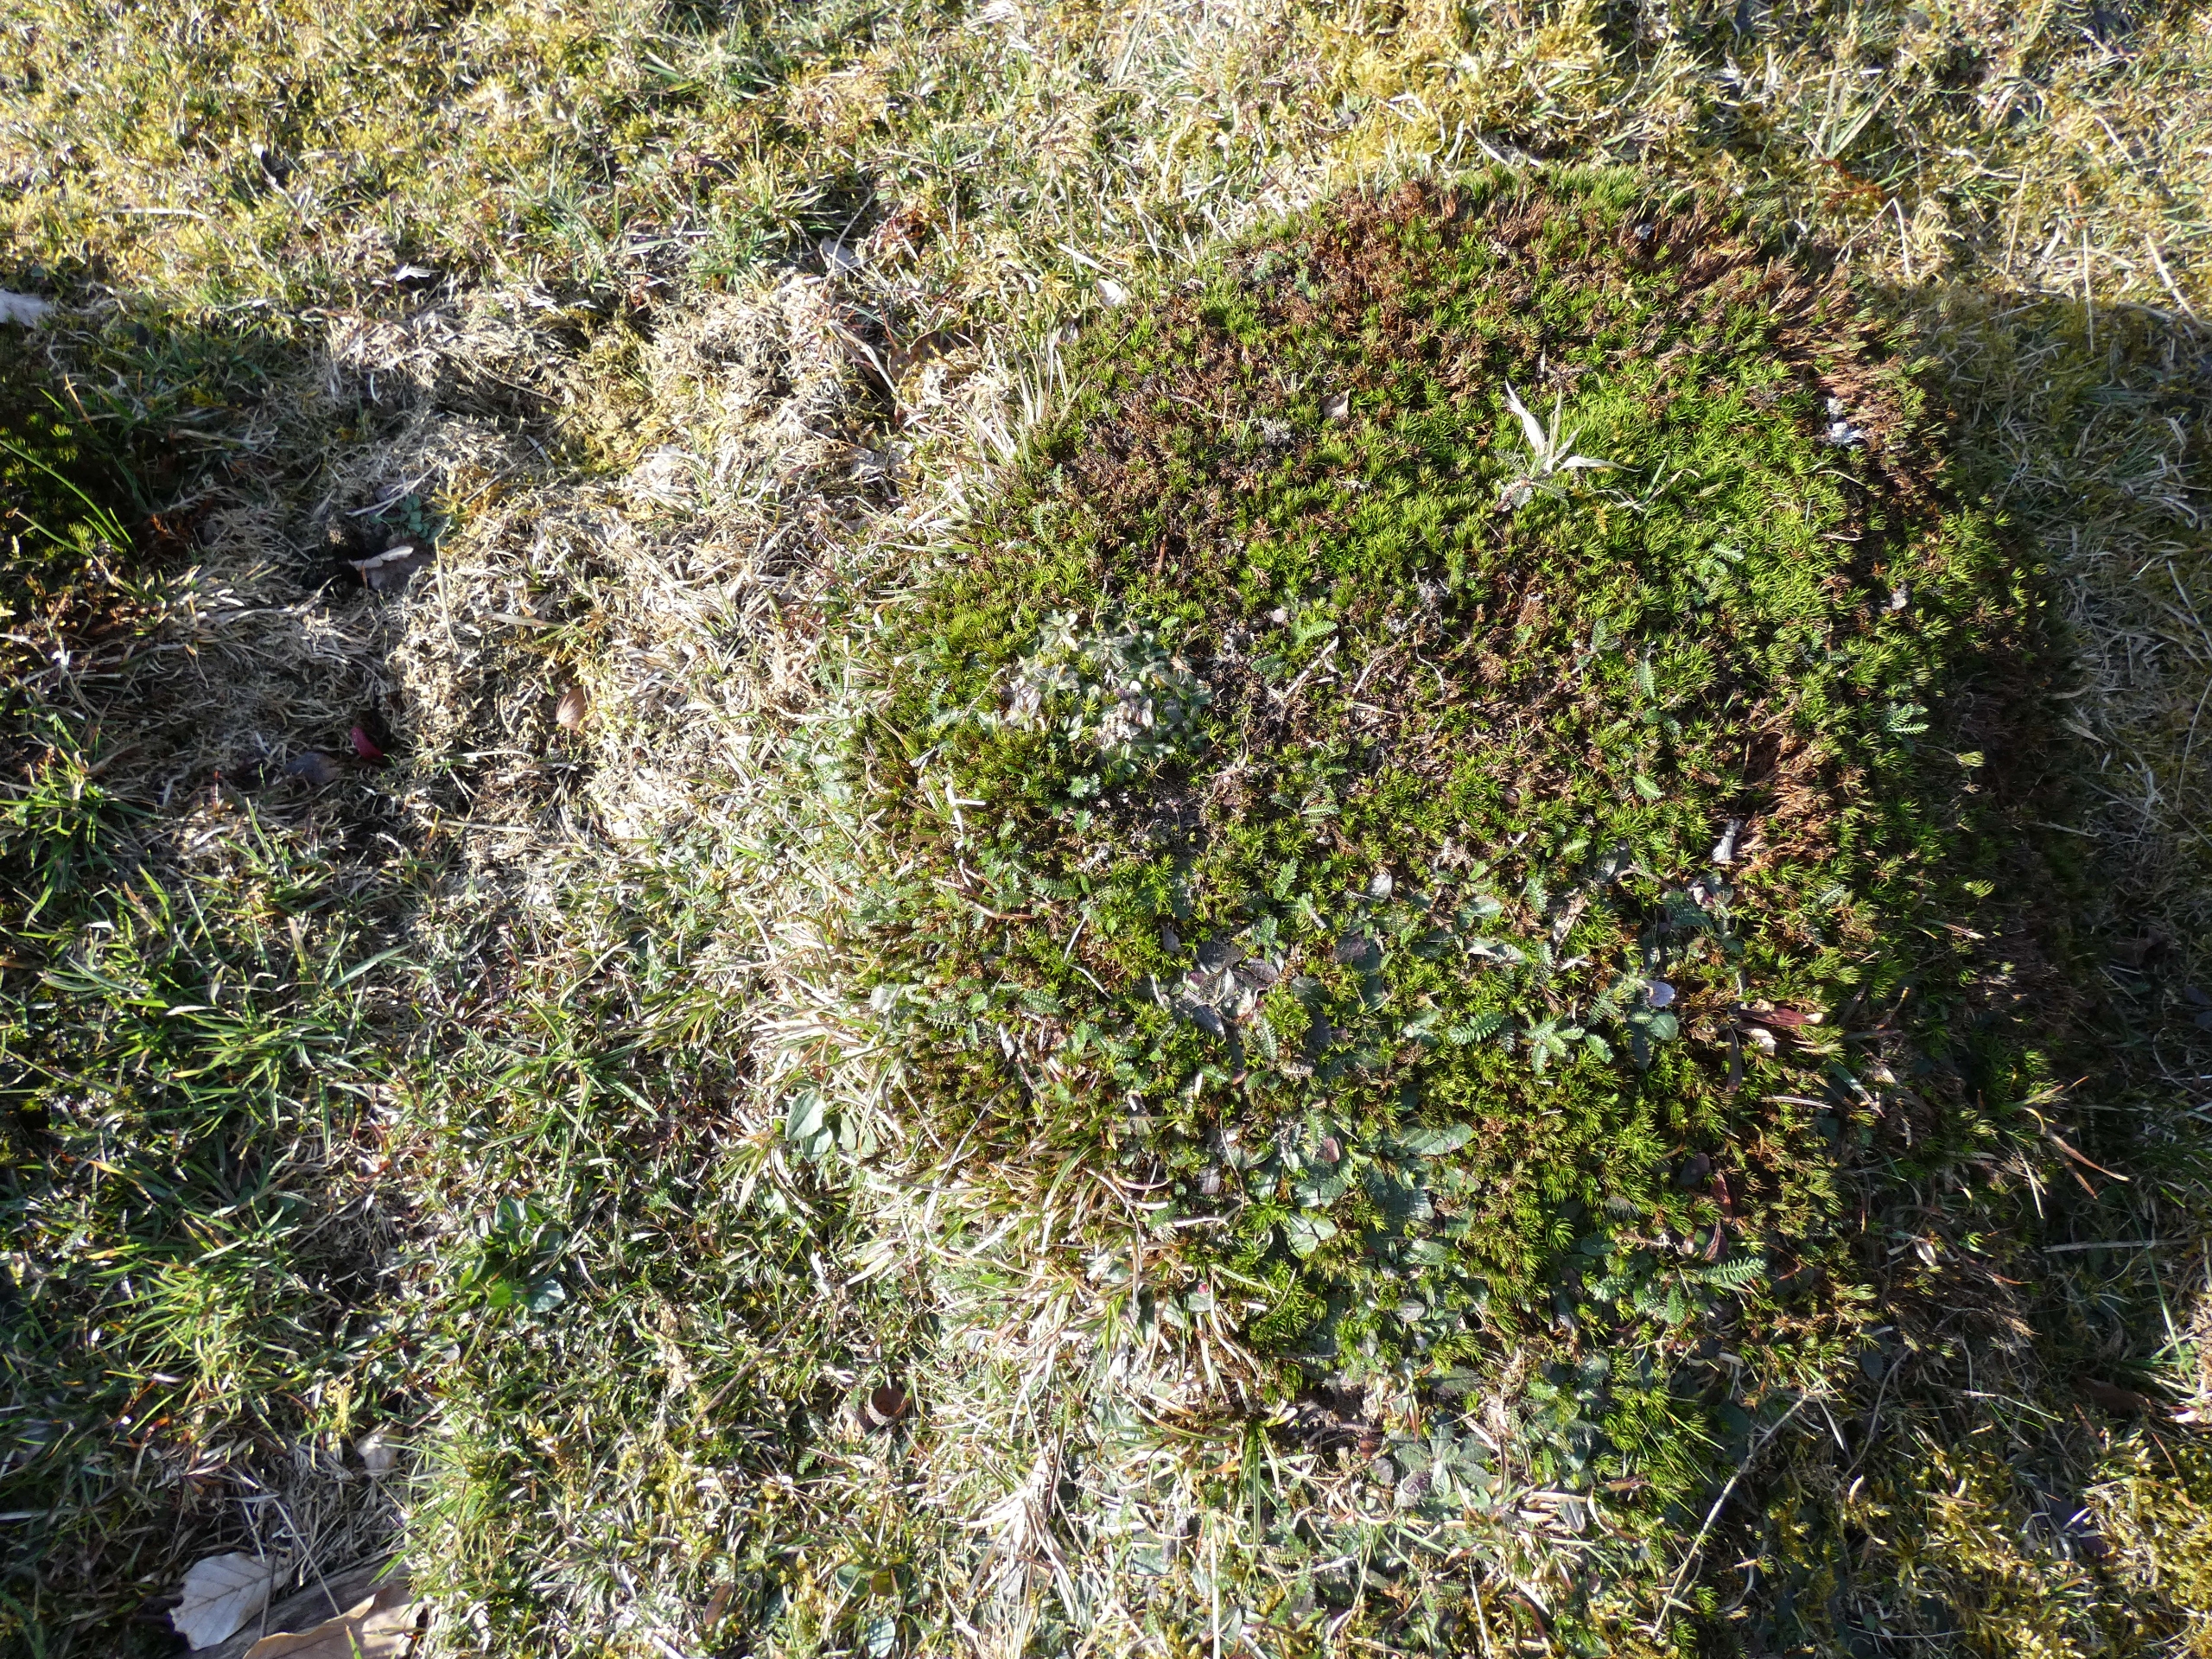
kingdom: Plantae
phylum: Bryophyta
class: Polytrichopsida
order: Polytrichales
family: Polytrichaceae
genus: Polytrichum
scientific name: Polytrichum formosum
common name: Skov-jomfruhår
